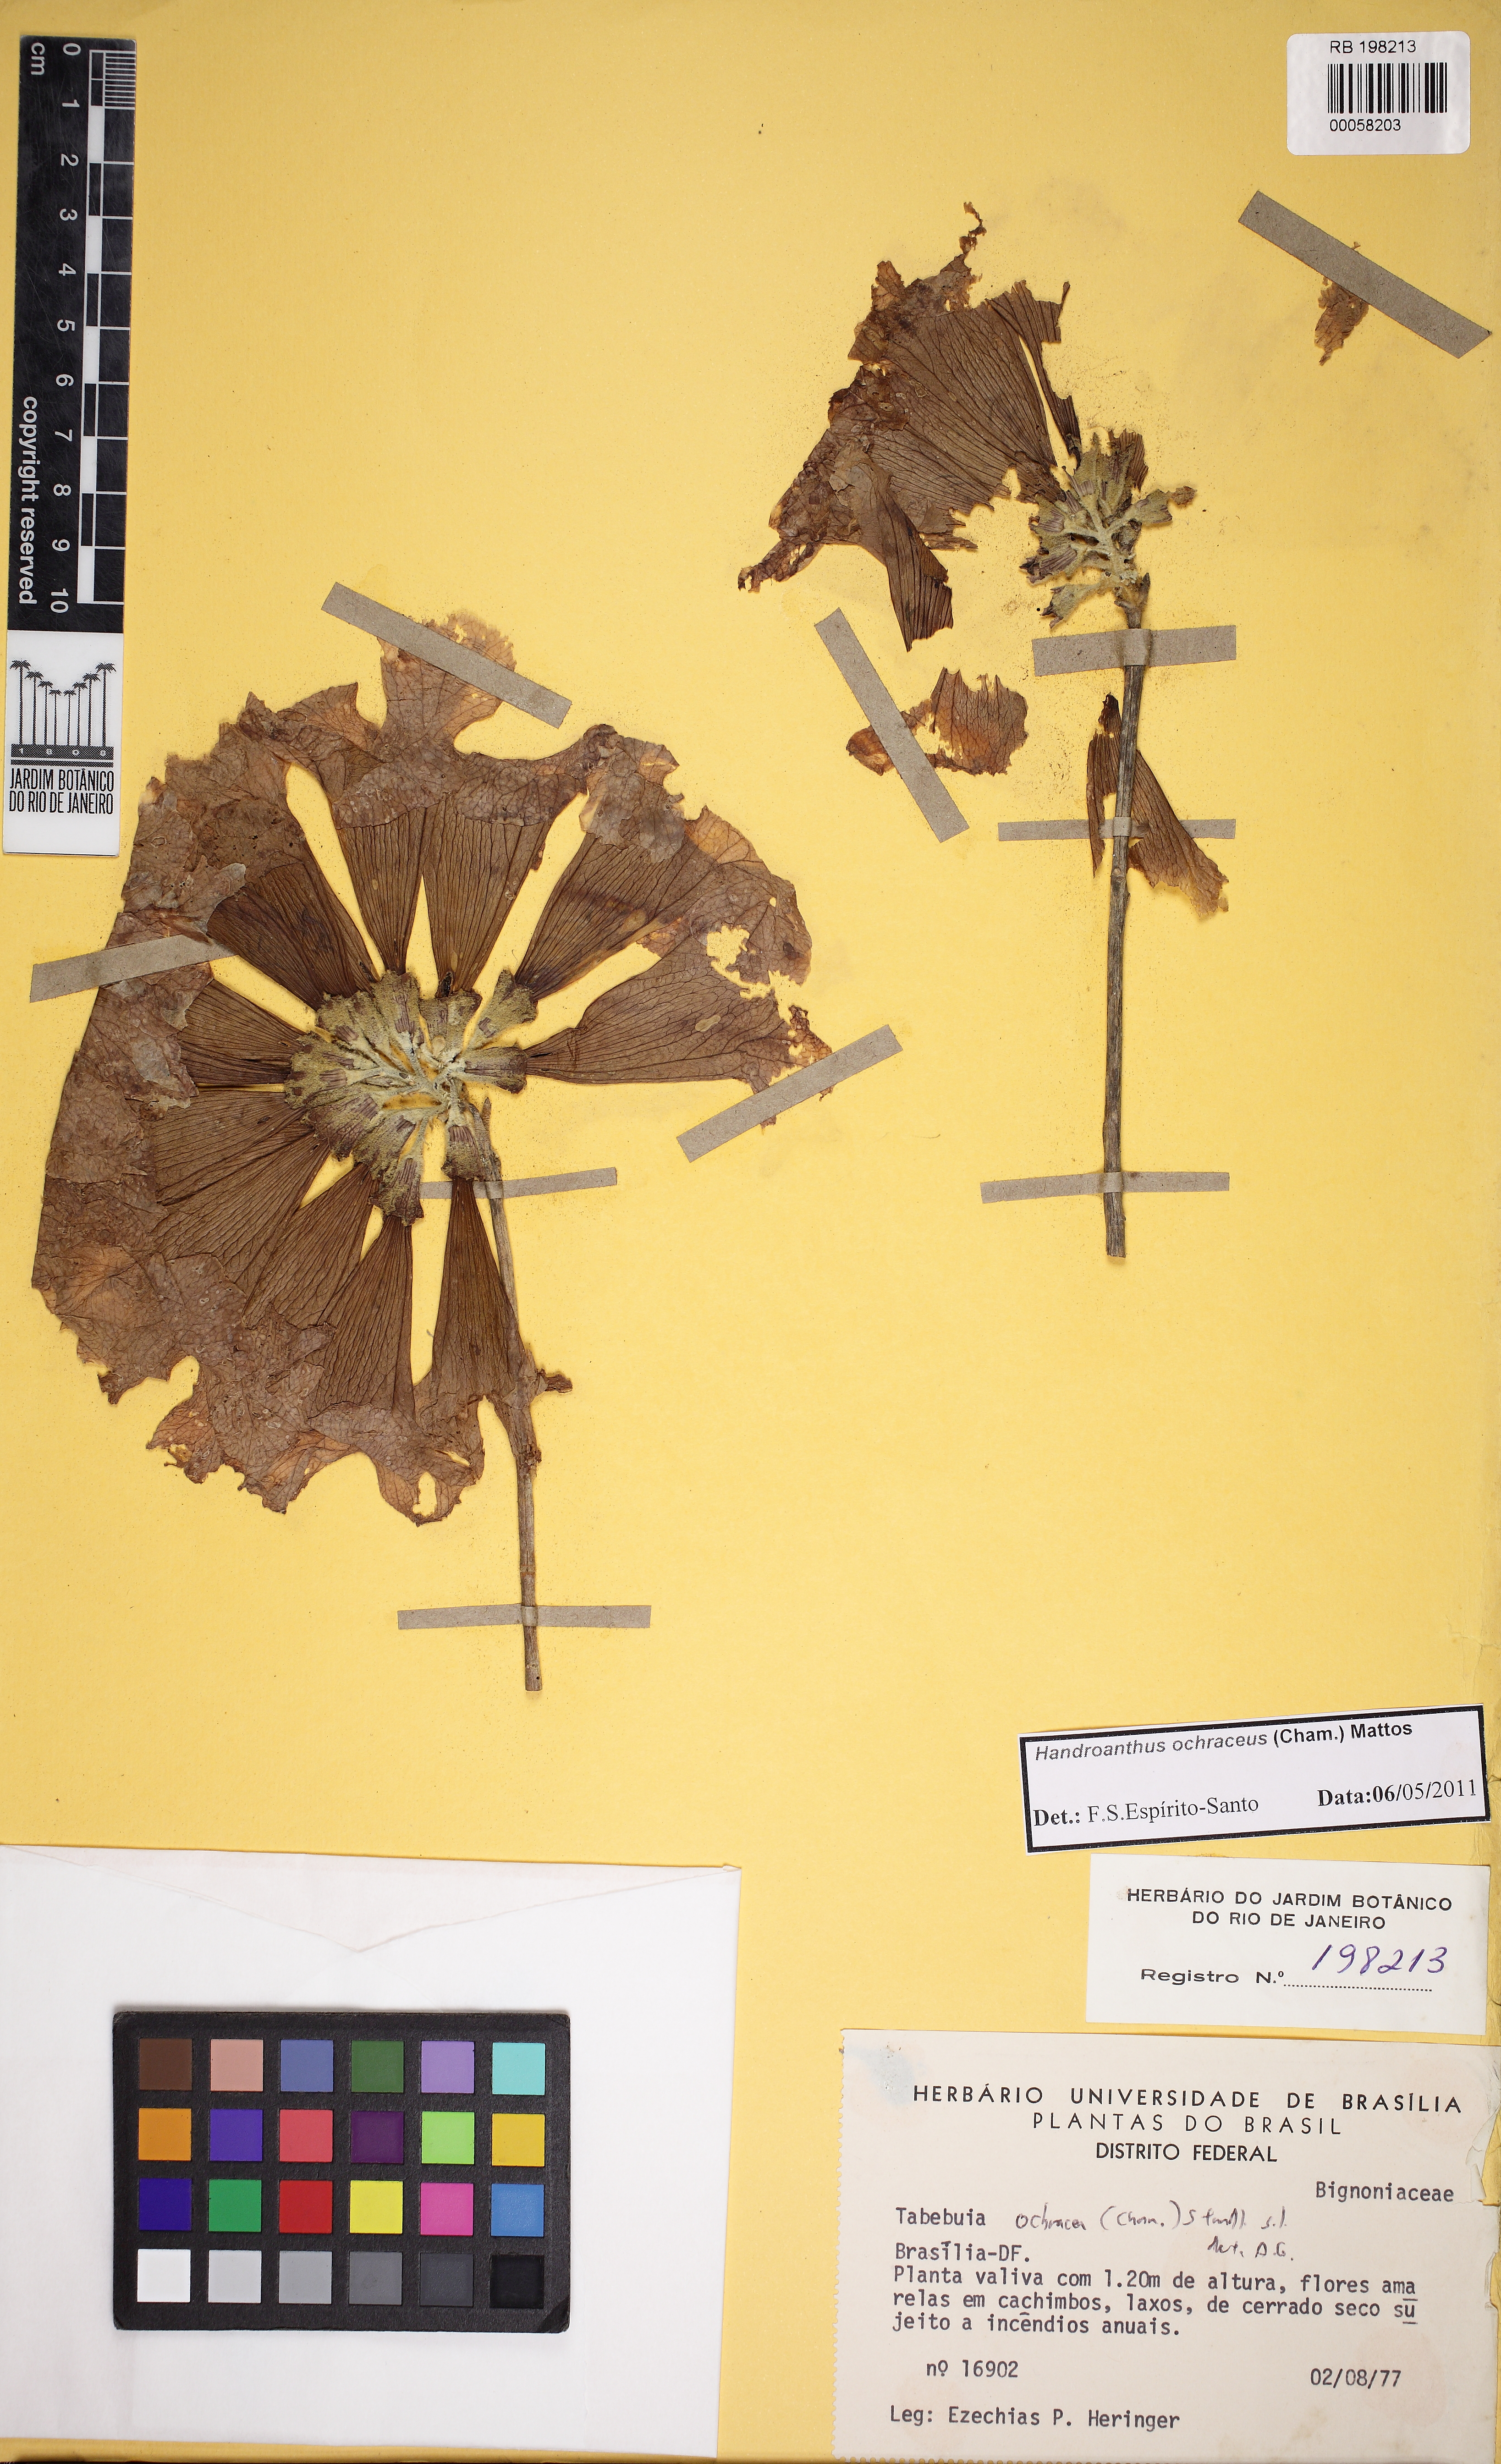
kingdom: Plantae
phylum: Tracheophyta
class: Magnoliopsida
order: Lamiales
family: Bignoniaceae
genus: Handroanthus
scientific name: Handroanthus ochraceus
